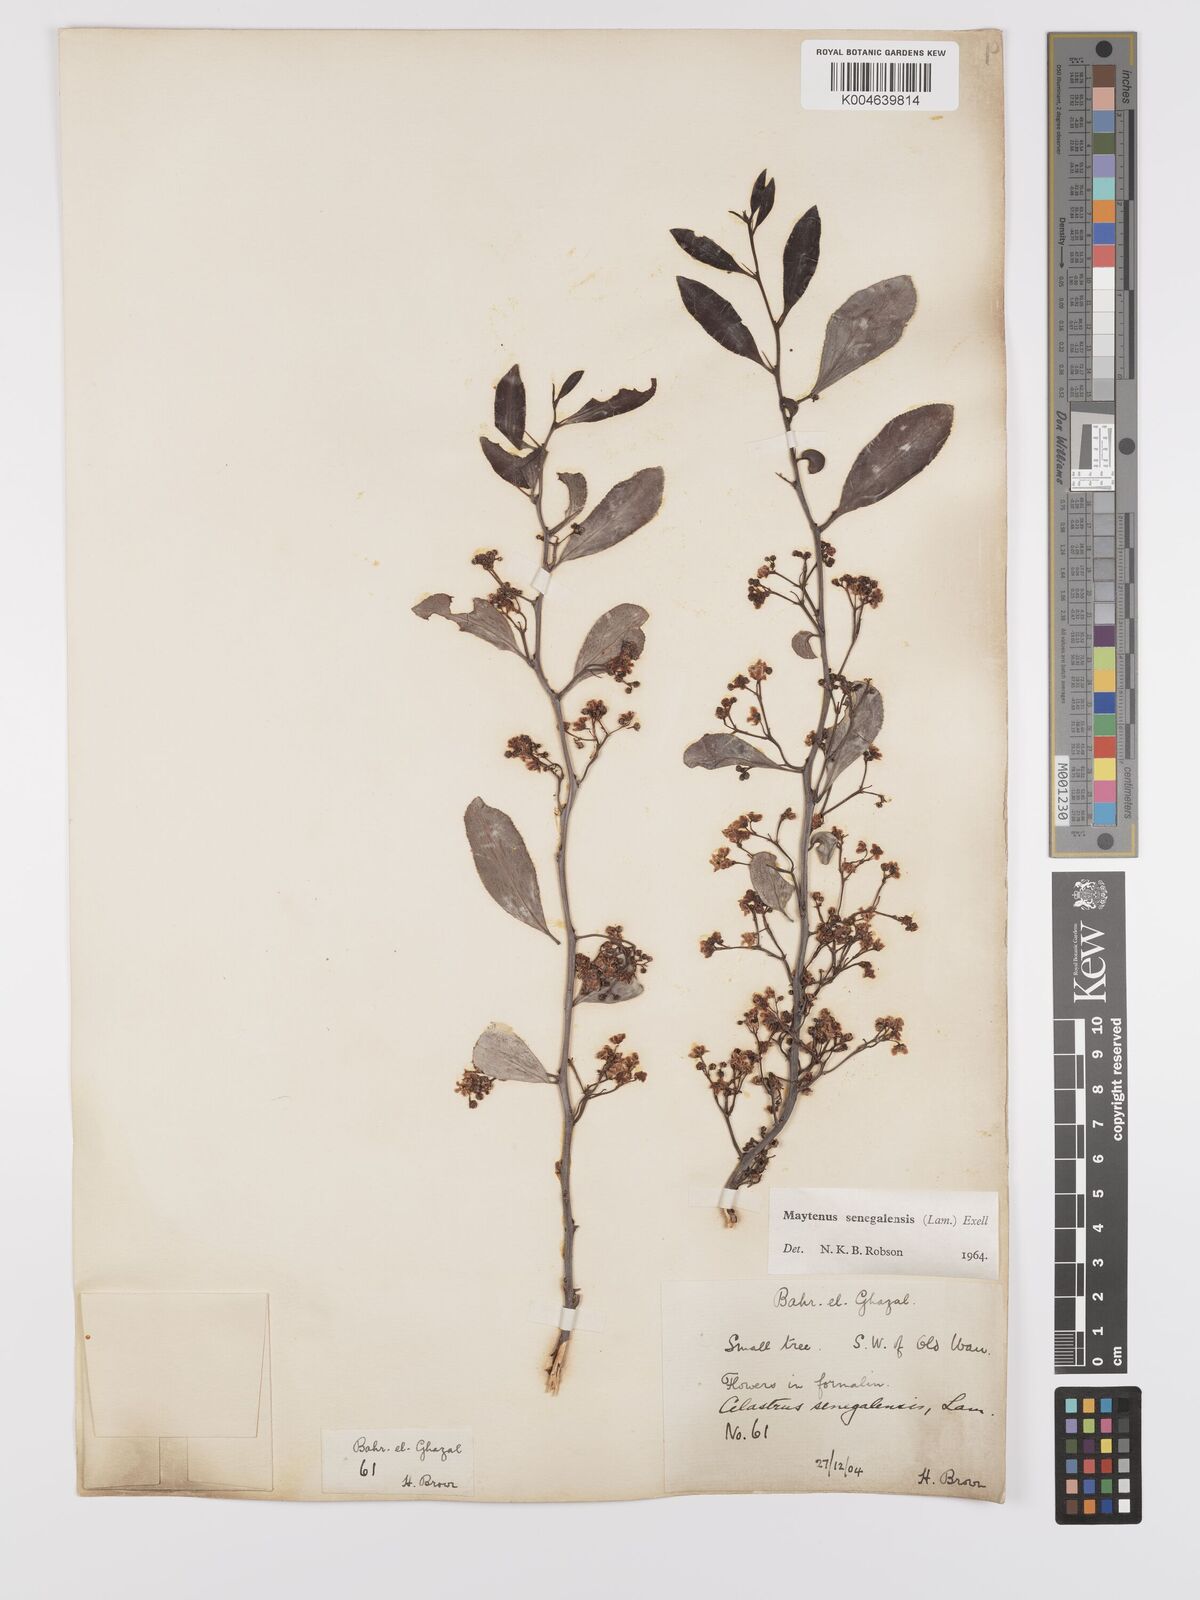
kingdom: Plantae
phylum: Tracheophyta
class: Magnoliopsida
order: Celastrales
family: Celastraceae
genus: Gymnosporia
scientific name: Gymnosporia senegalensis
